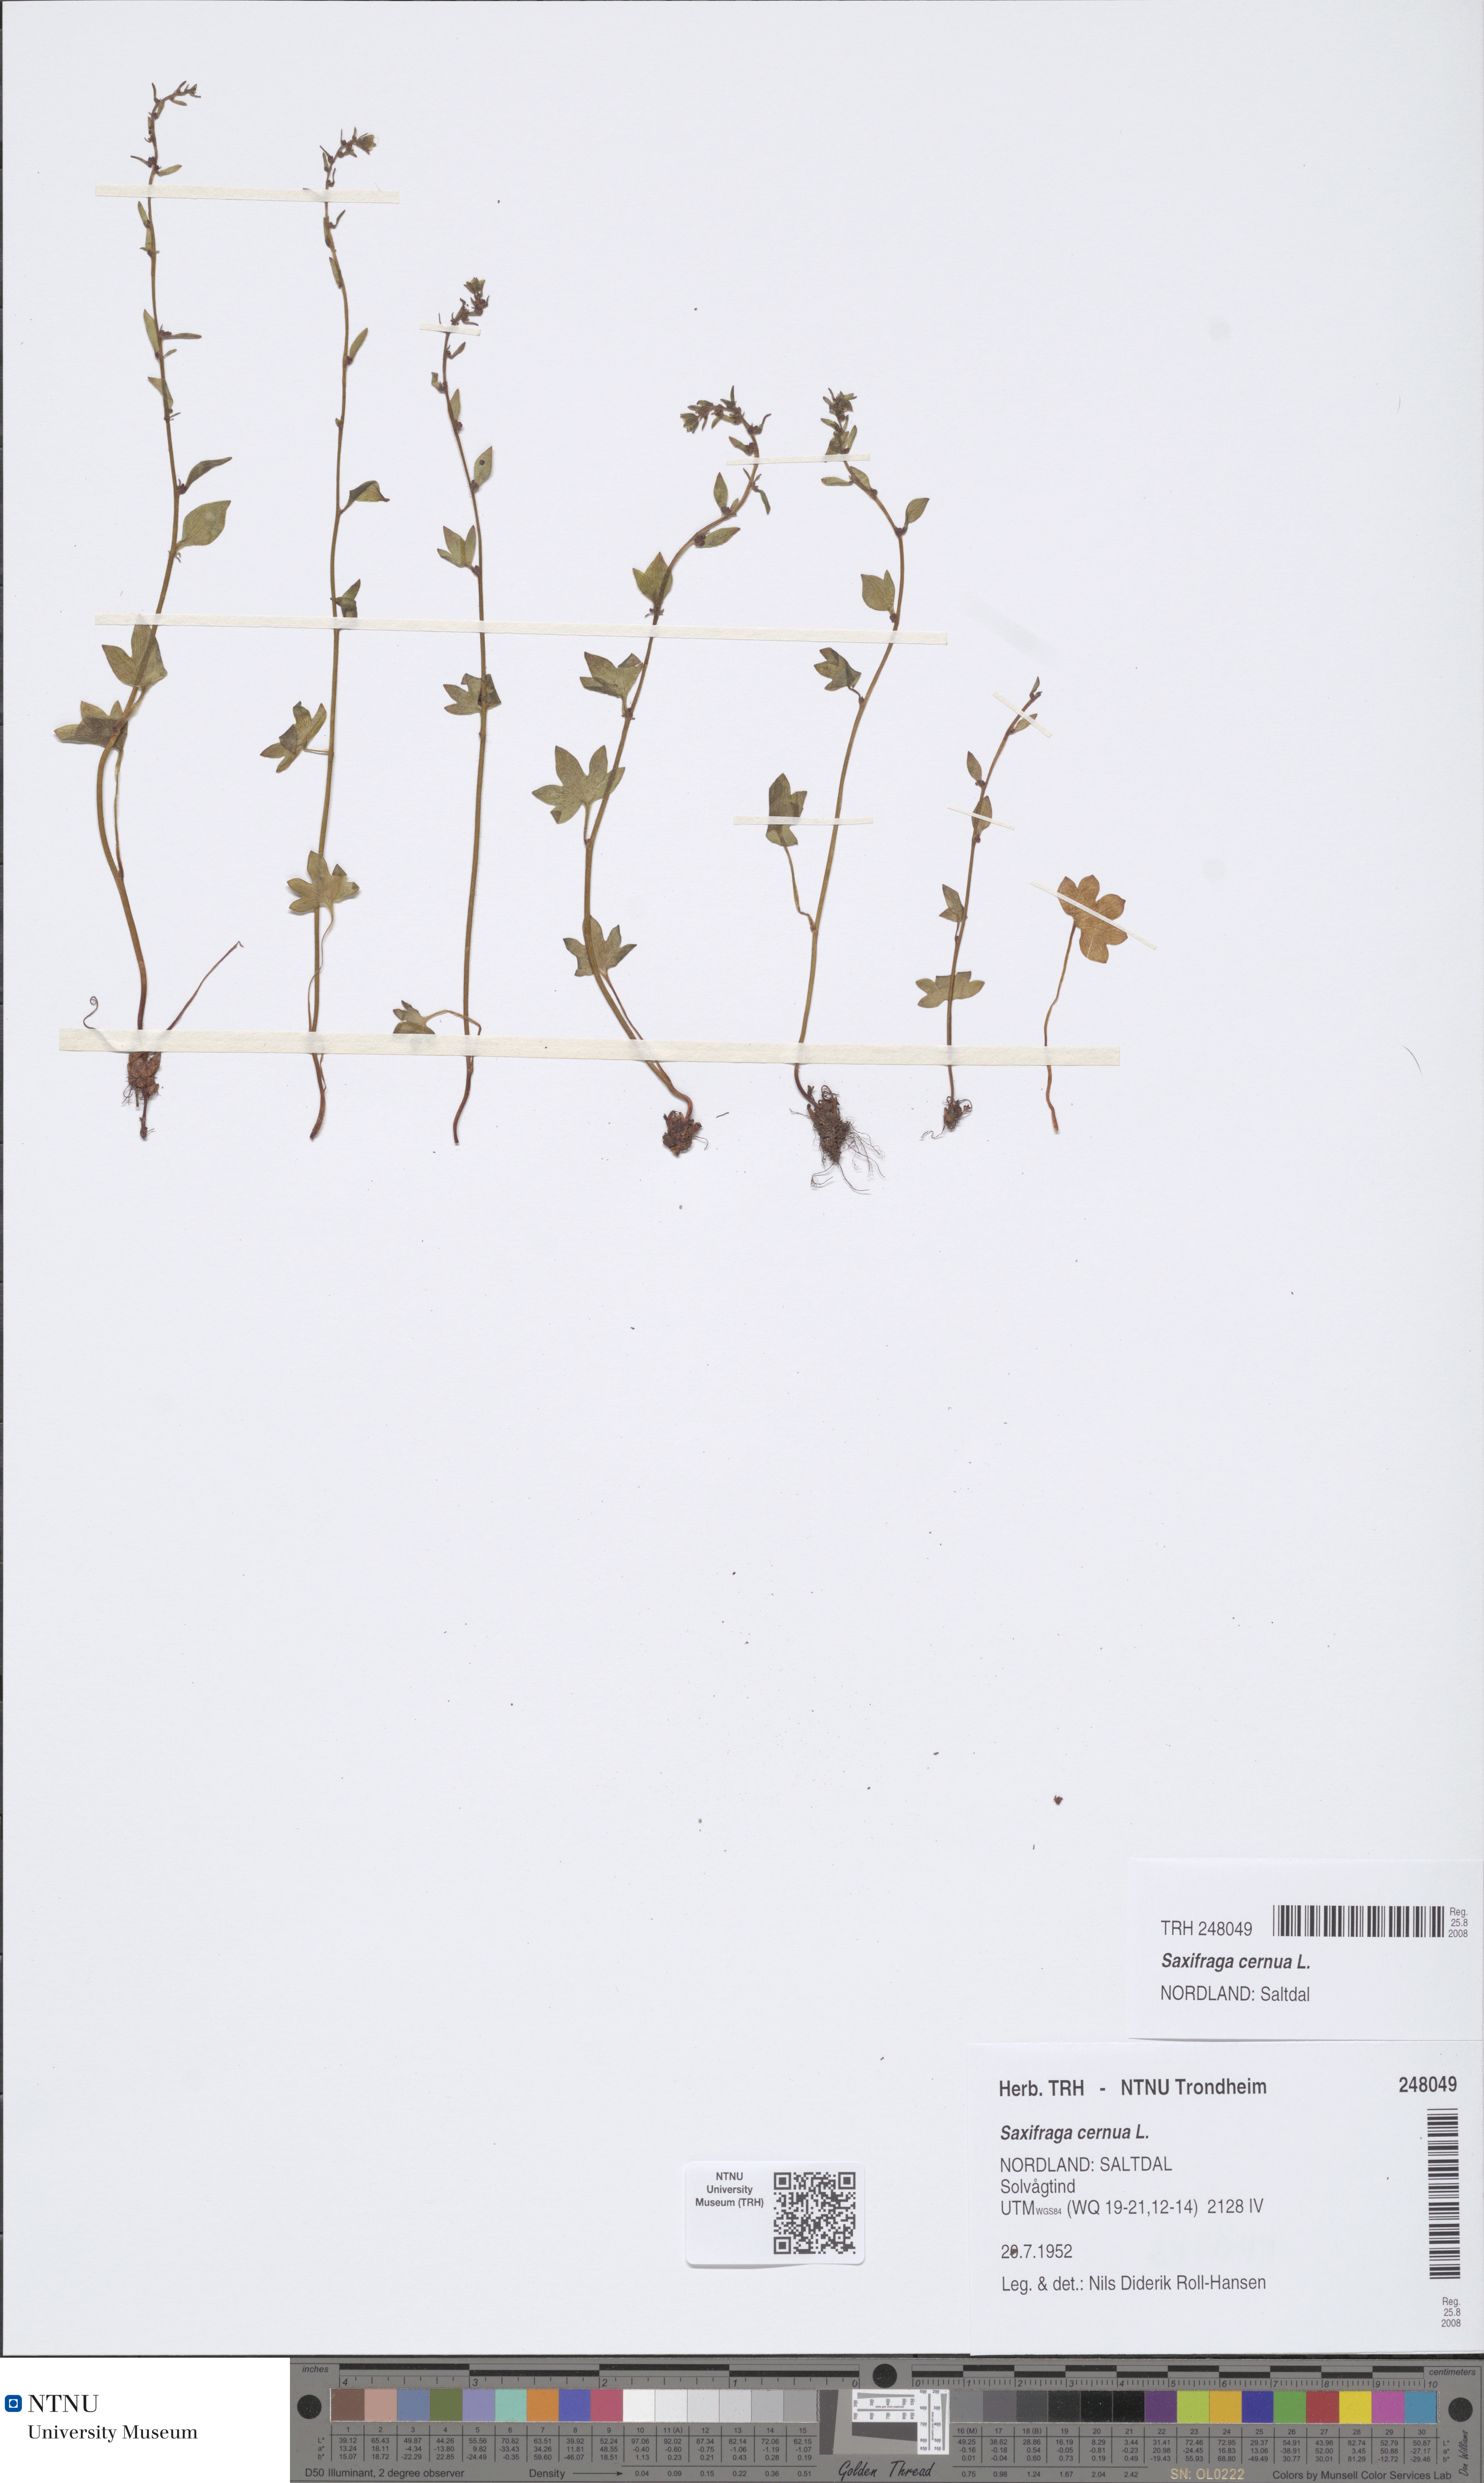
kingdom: Plantae
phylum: Tracheophyta
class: Magnoliopsida
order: Saxifragales
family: Saxifragaceae
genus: Saxifraga
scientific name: Saxifraga cernua
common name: Drooping saxifrage
